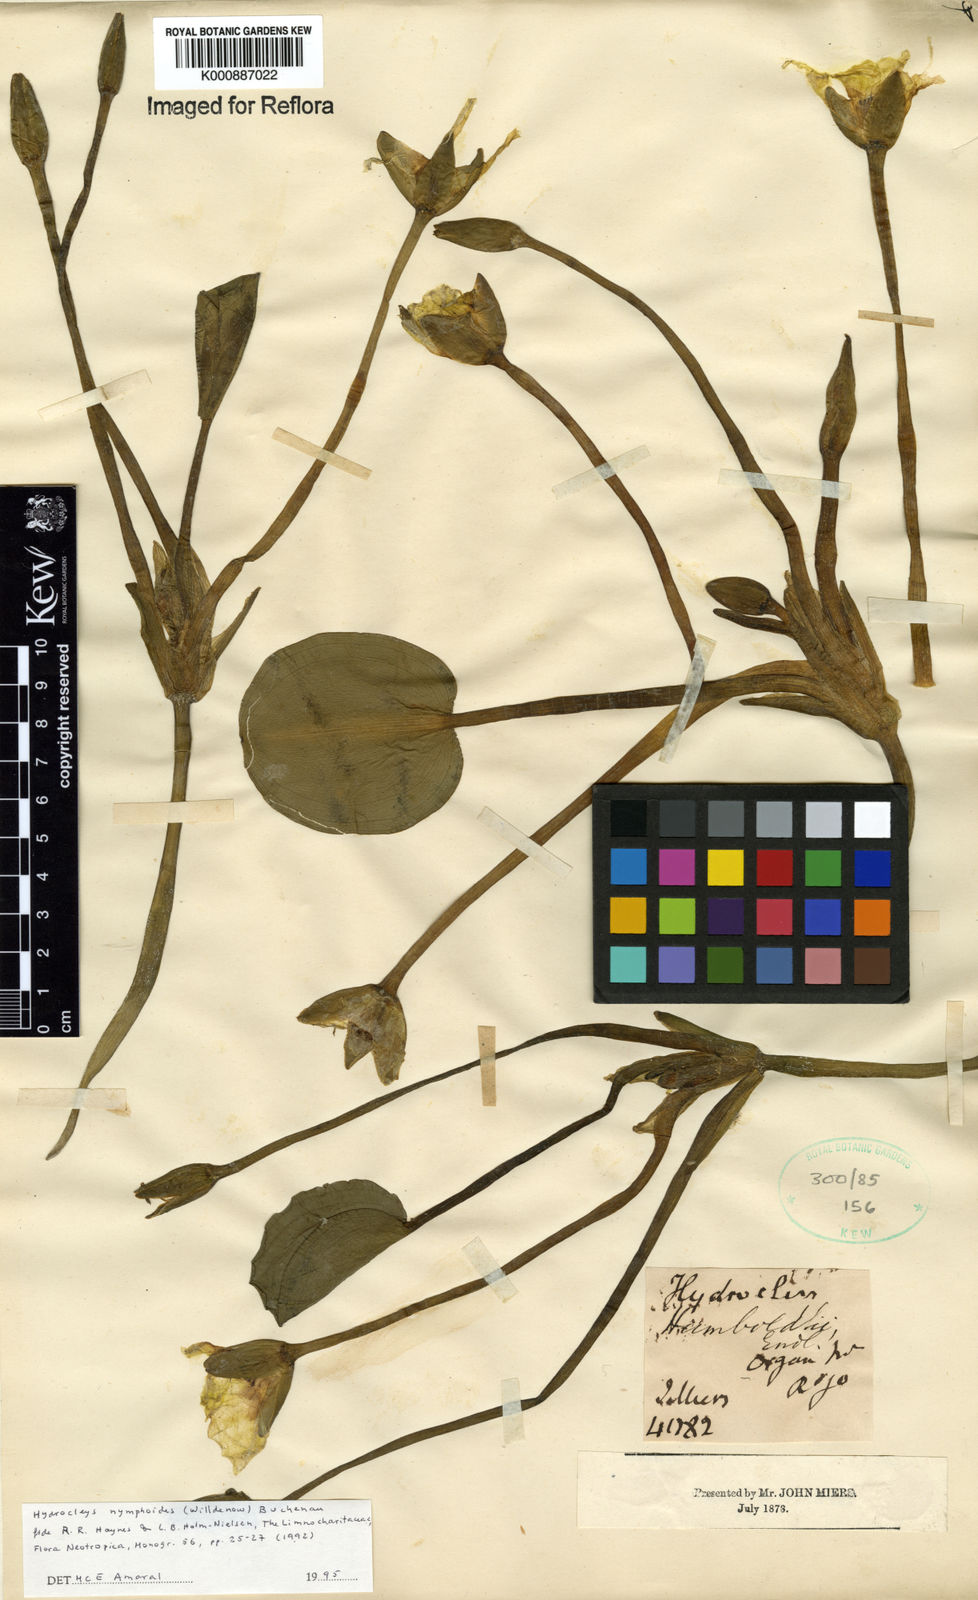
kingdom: Plantae
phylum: Tracheophyta
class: Liliopsida
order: Alismatales
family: Alismataceae
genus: Hydrocleys
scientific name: Hydrocleys nymphoides
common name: Water-poppy
